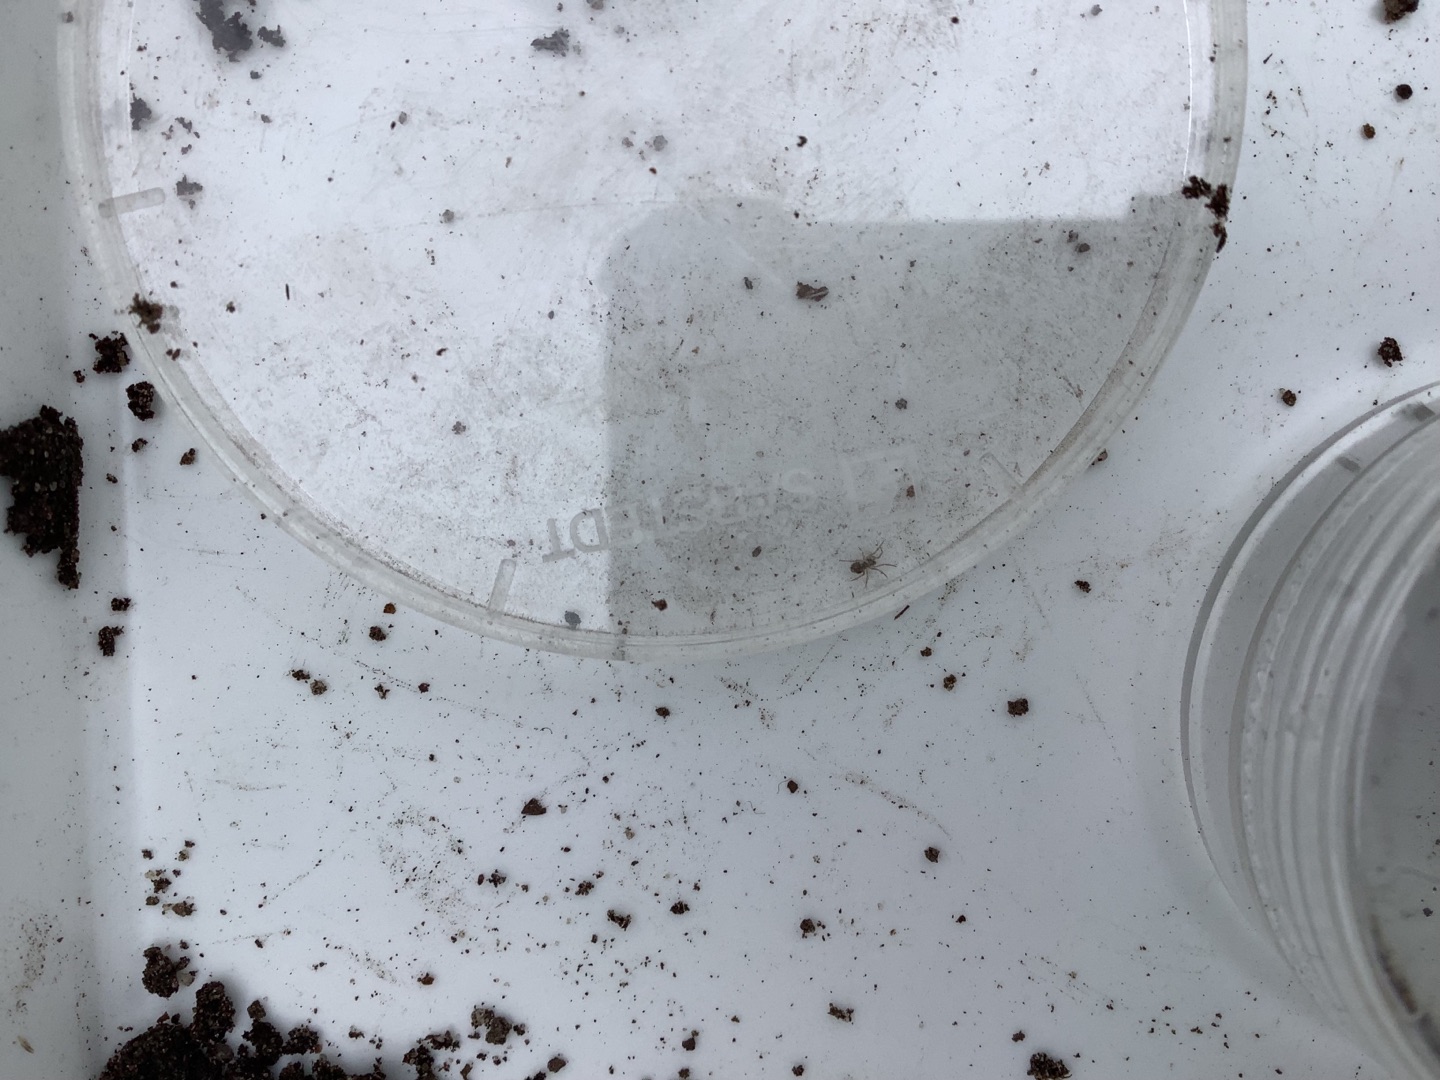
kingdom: Animalia
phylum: Arthropoda
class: Arachnida
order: Araneae
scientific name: Araneae
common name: Edderkopper
